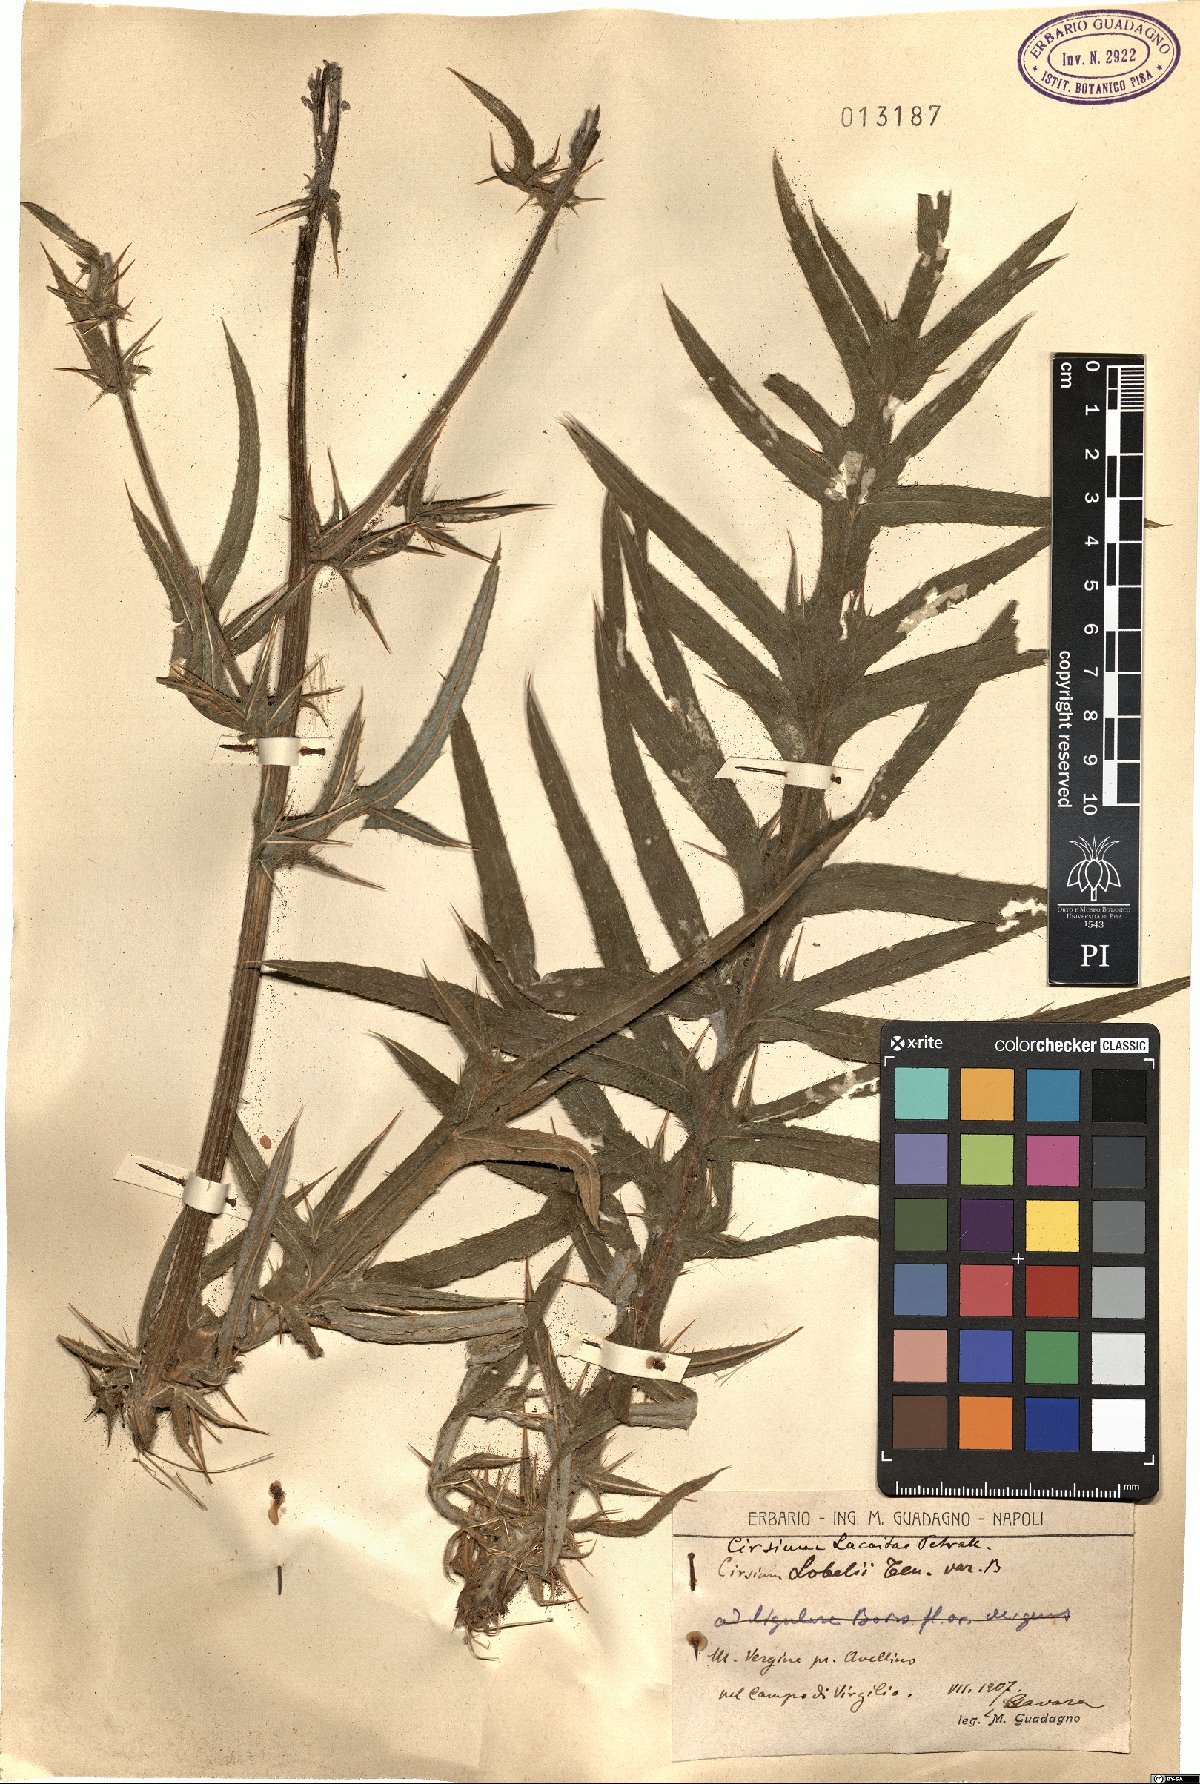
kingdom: Plantae
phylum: Tracheophyta
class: Magnoliopsida
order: Asterales
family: Asteraceae
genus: Lophiolepis
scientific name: Lophiolepis lacaitae
